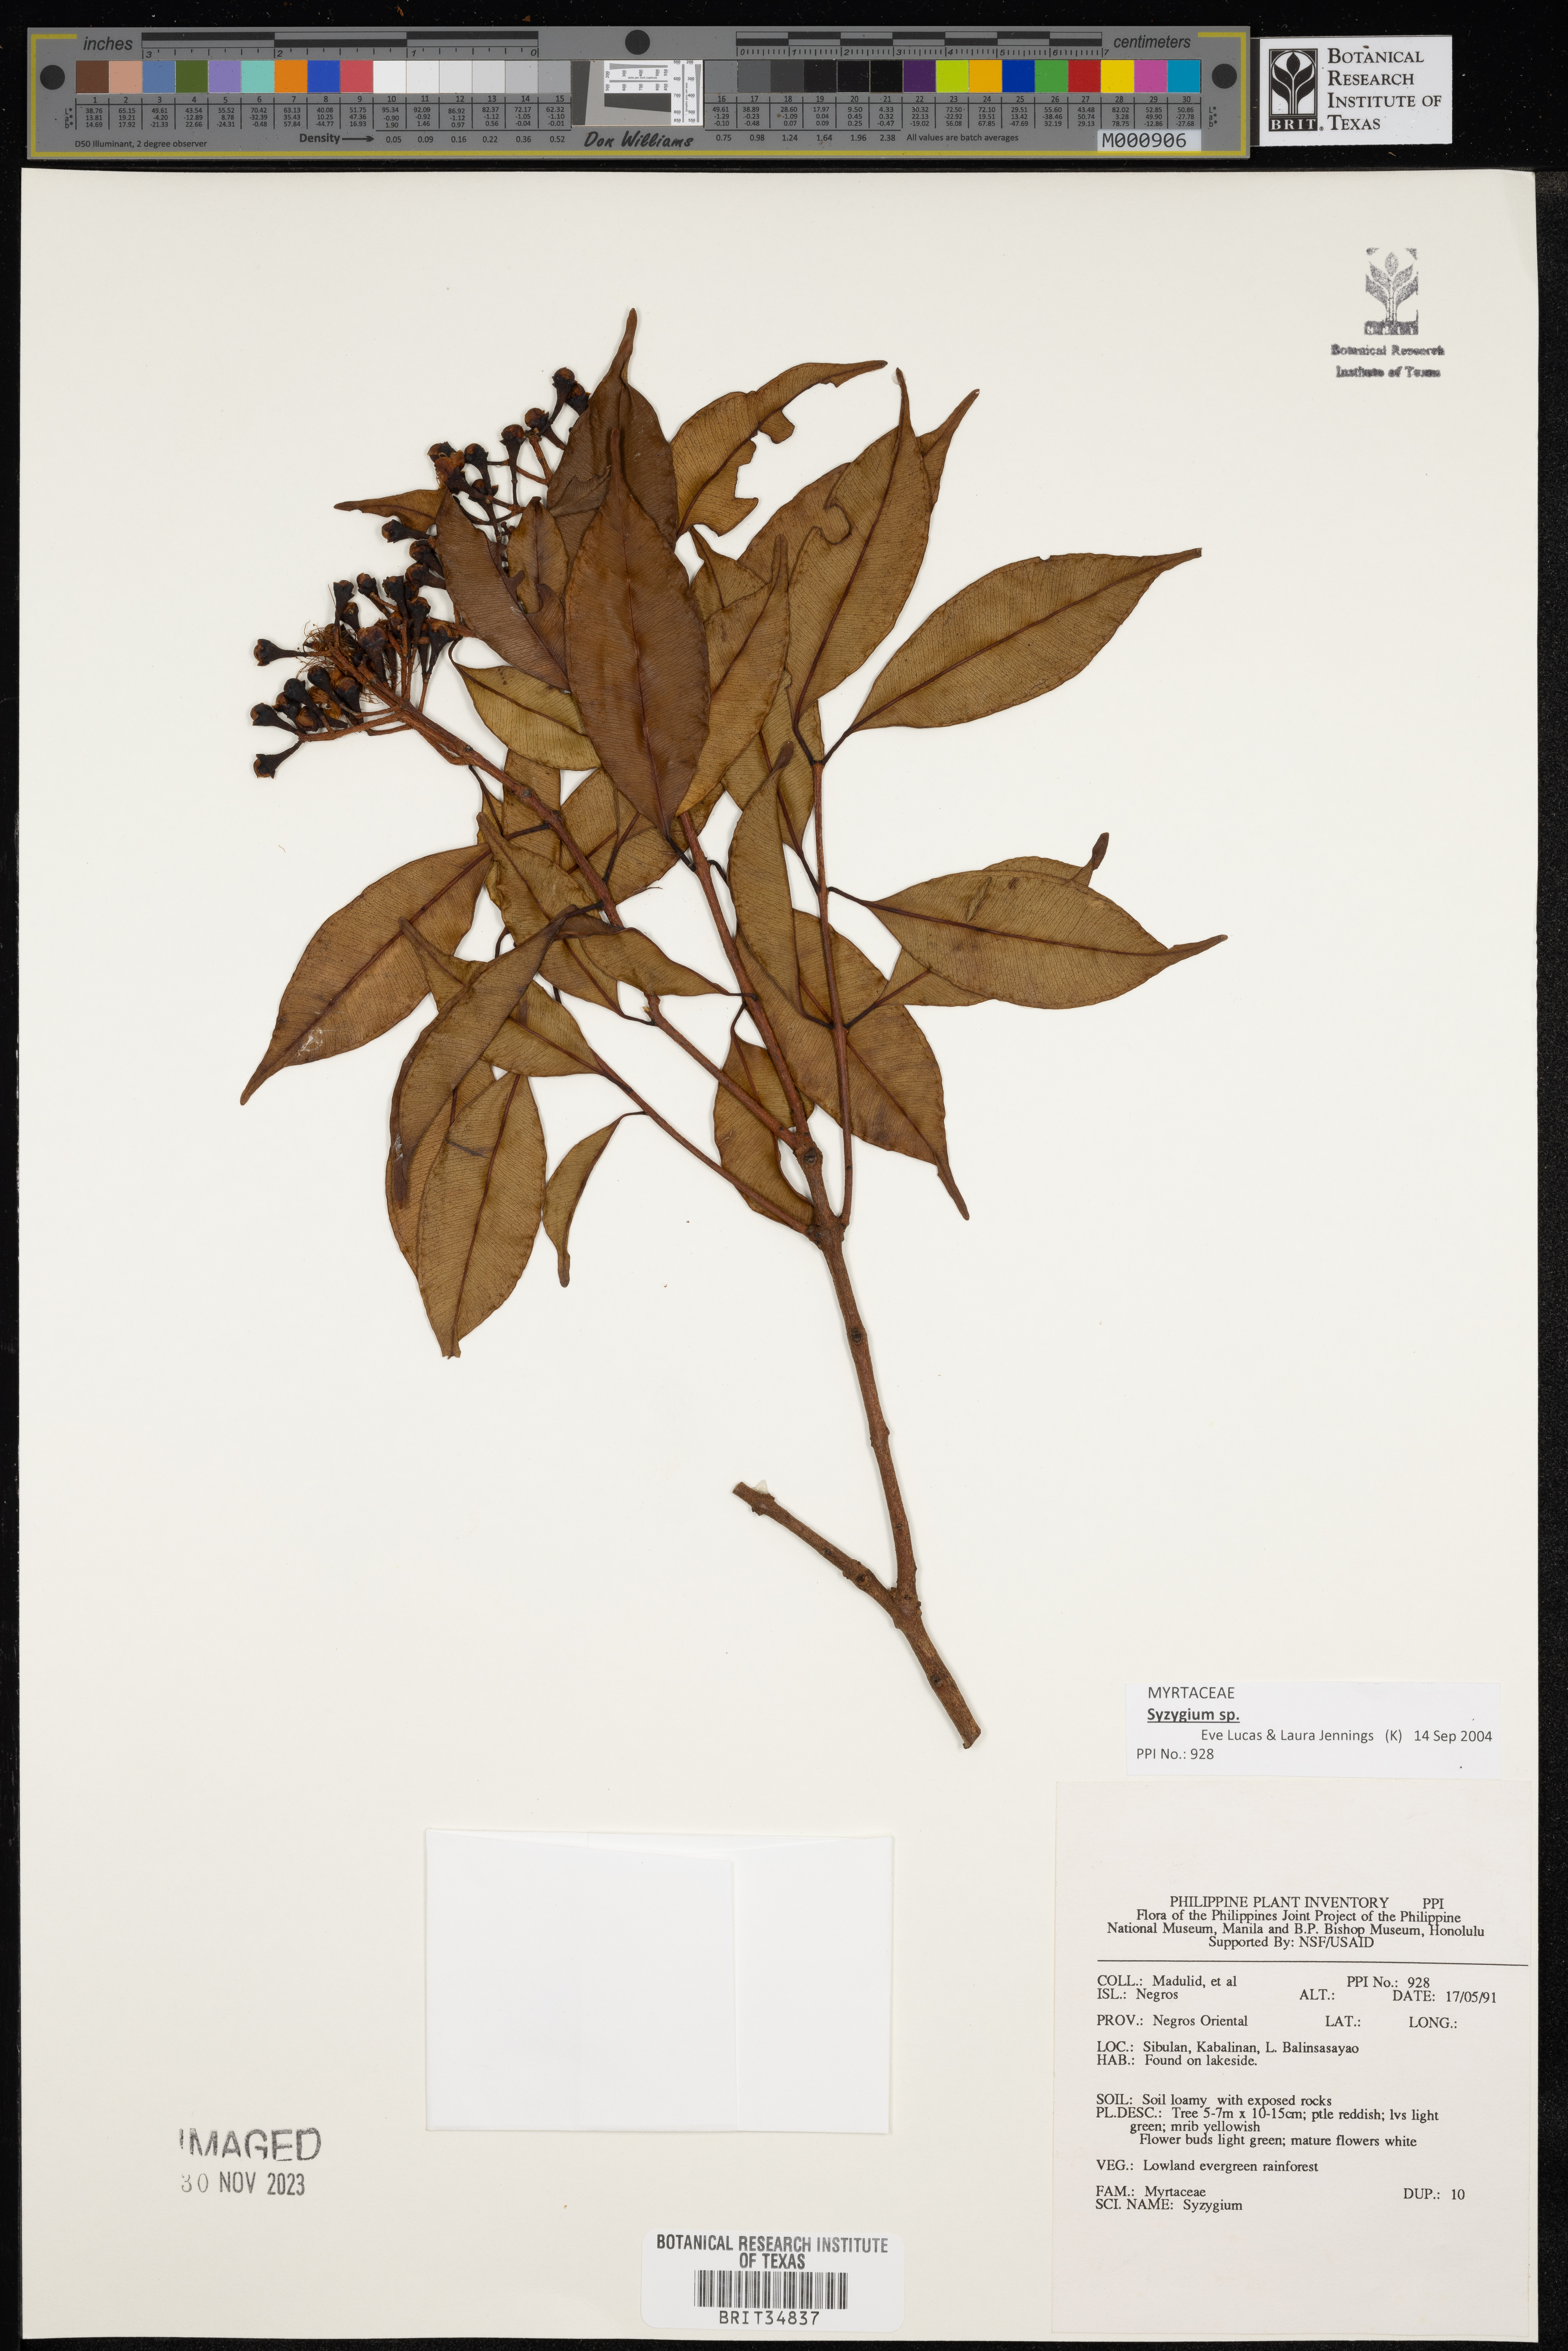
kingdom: Plantae
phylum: Tracheophyta
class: Magnoliopsida
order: Myrtales
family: Myrtaceae
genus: Syzygium
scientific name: Syzygium
